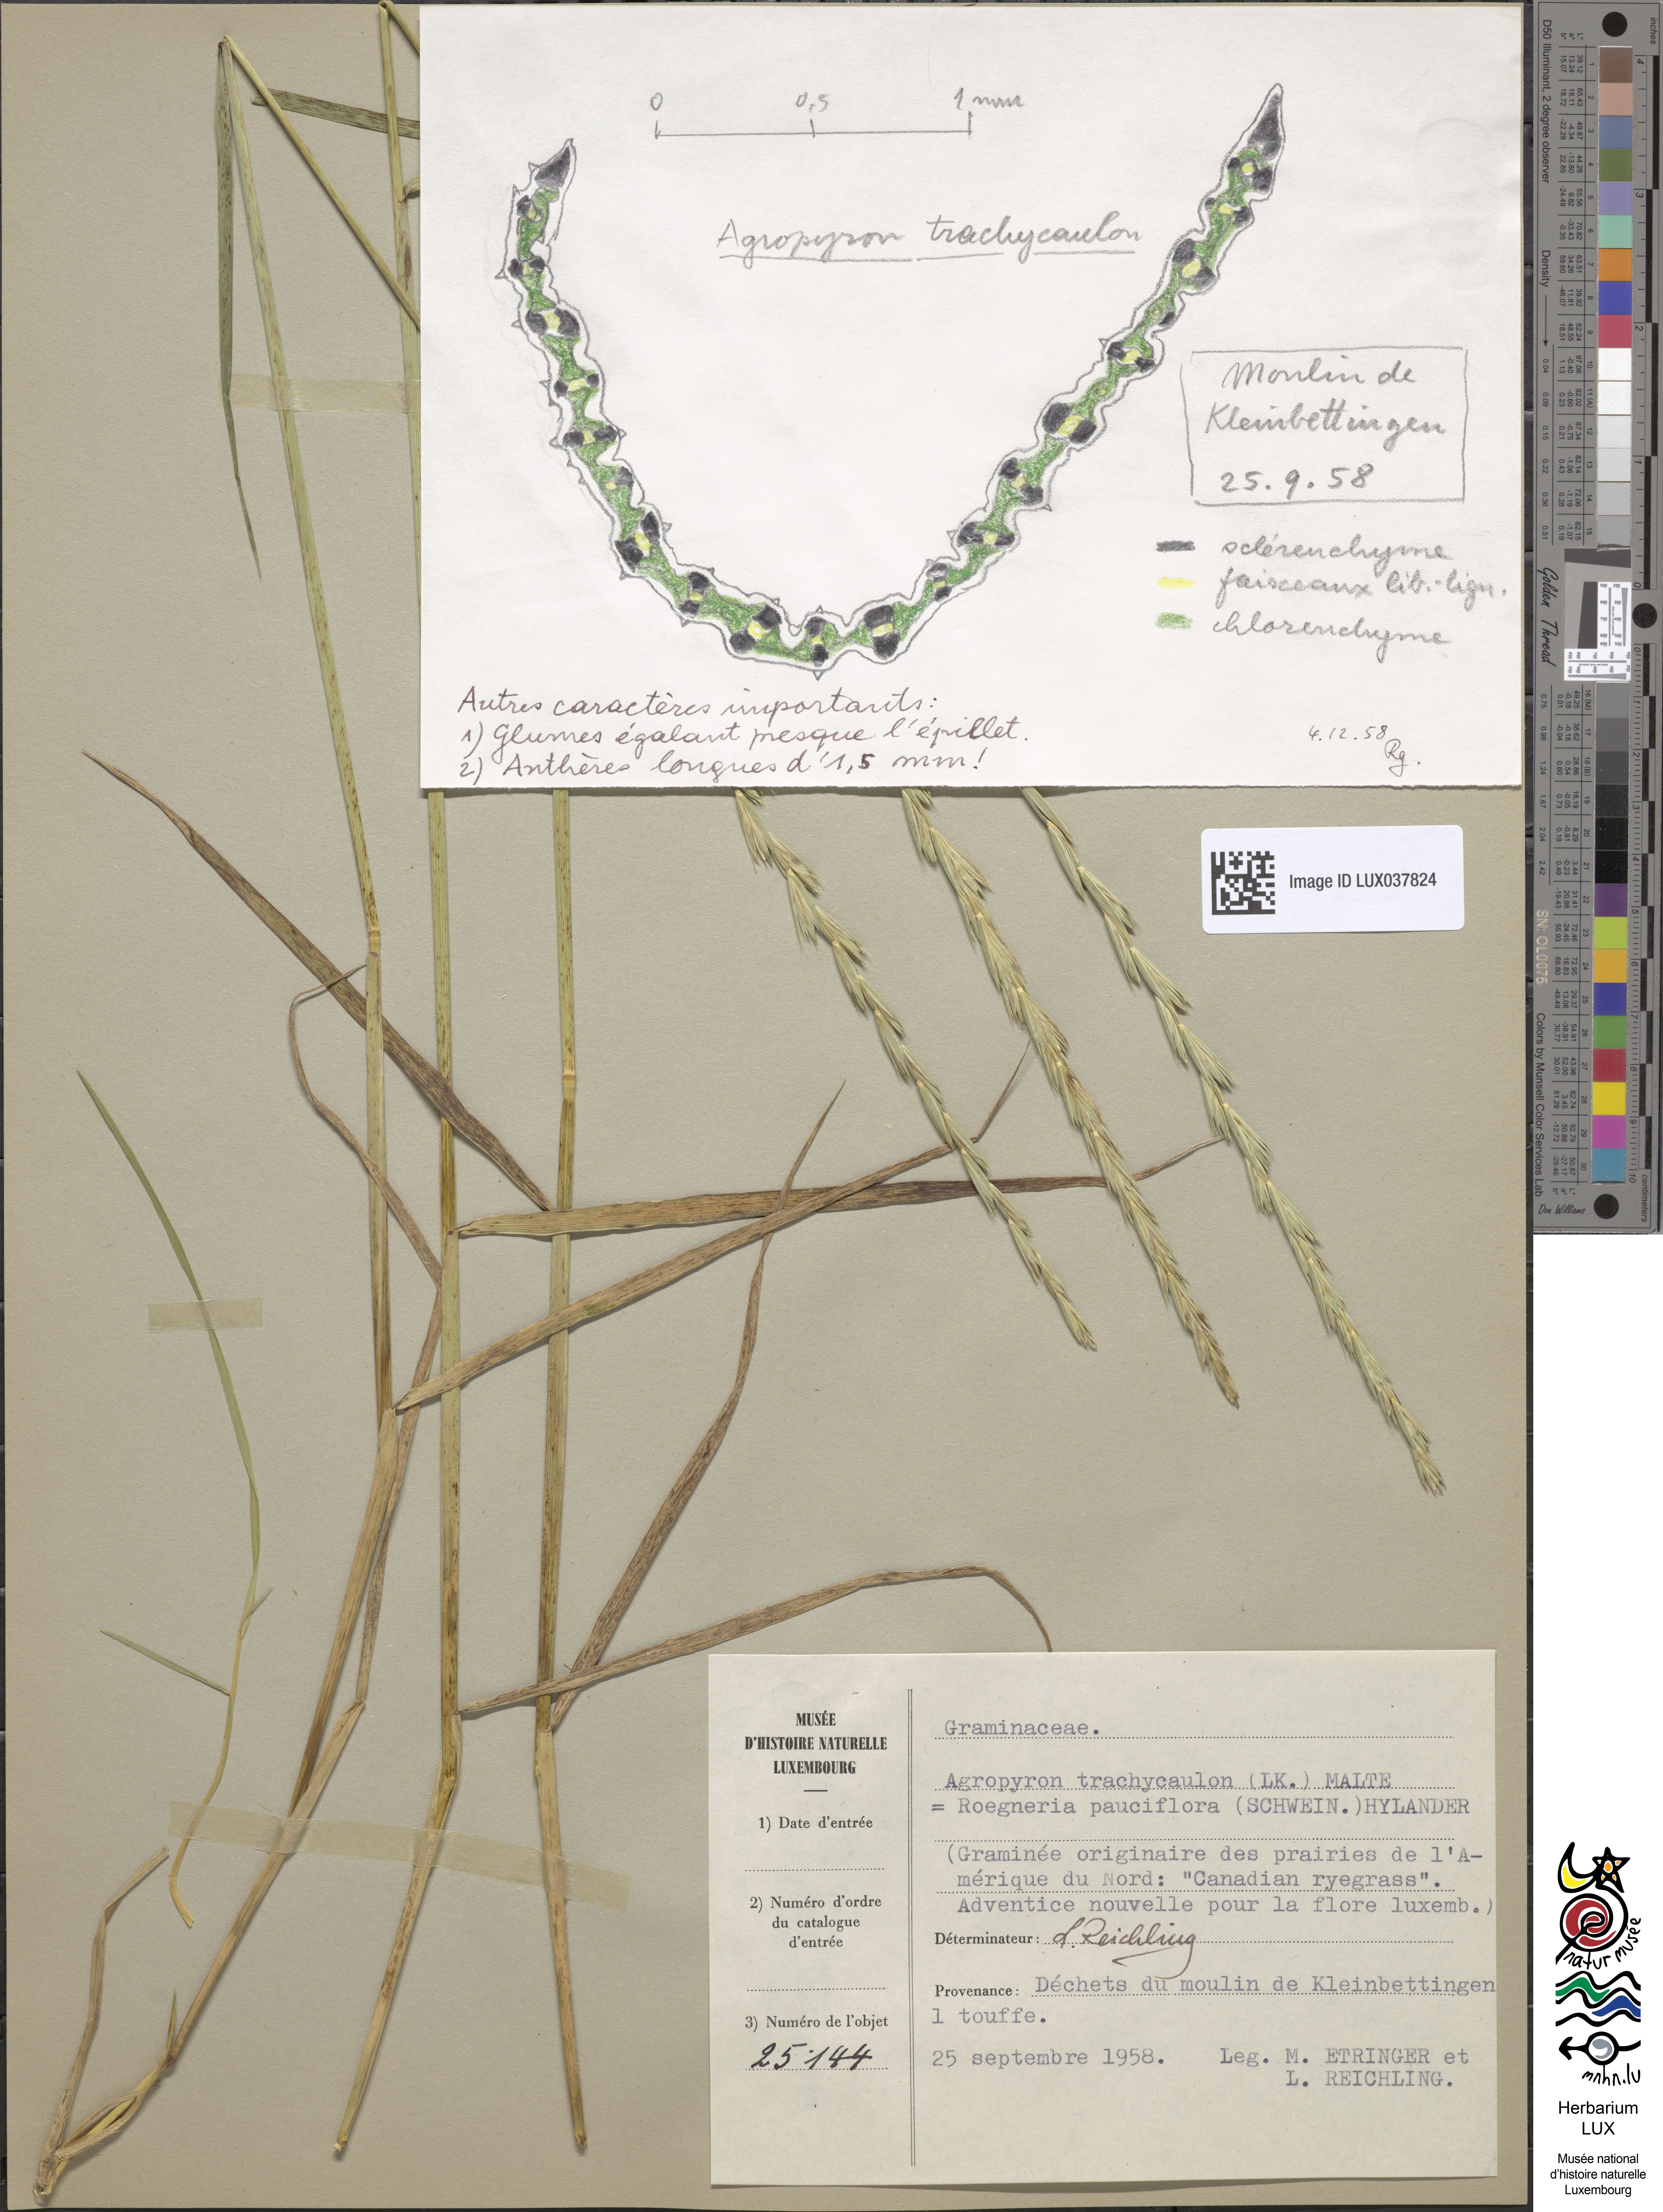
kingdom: Plantae
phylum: Tracheophyta
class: Liliopsida
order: Poales
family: Poaceae
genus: Elymus
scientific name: Elymus violaceus
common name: Arctic wheatgrass
